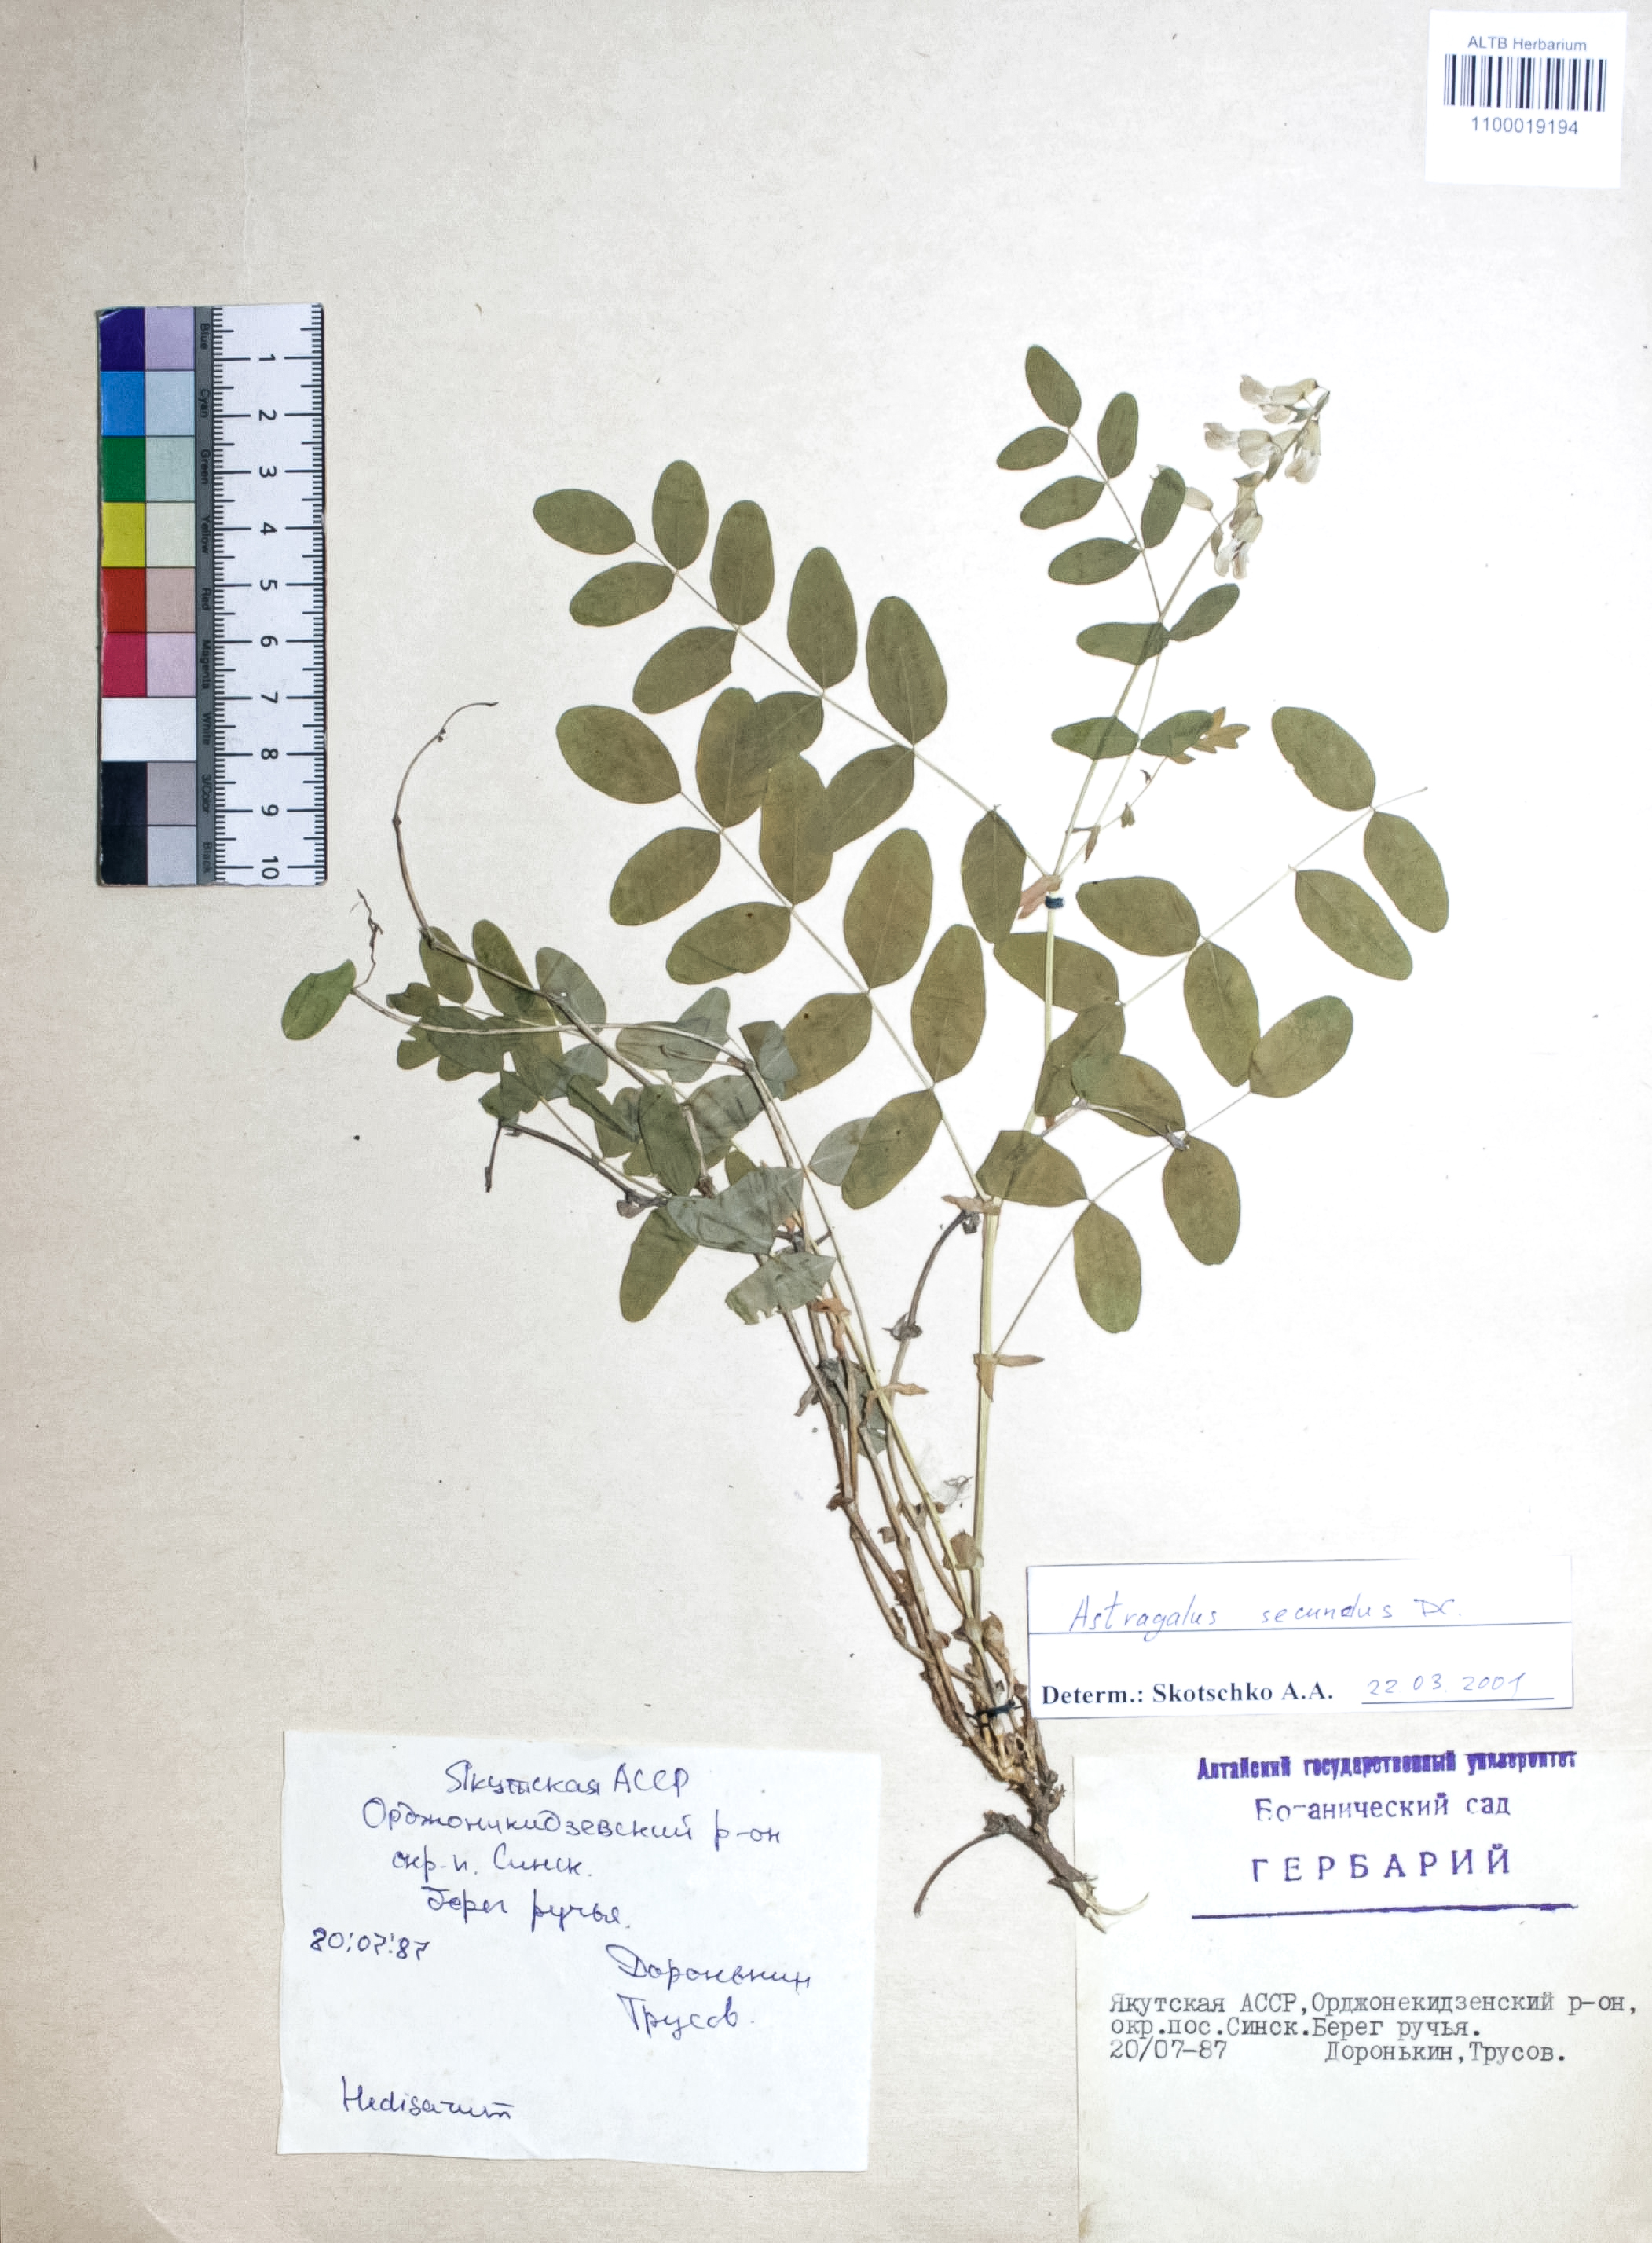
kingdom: Plantae
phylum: Tracheophyta
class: Magnoliopsida
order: Fabales
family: Fabaceae
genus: Astragalus
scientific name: Astragalus frigidus
